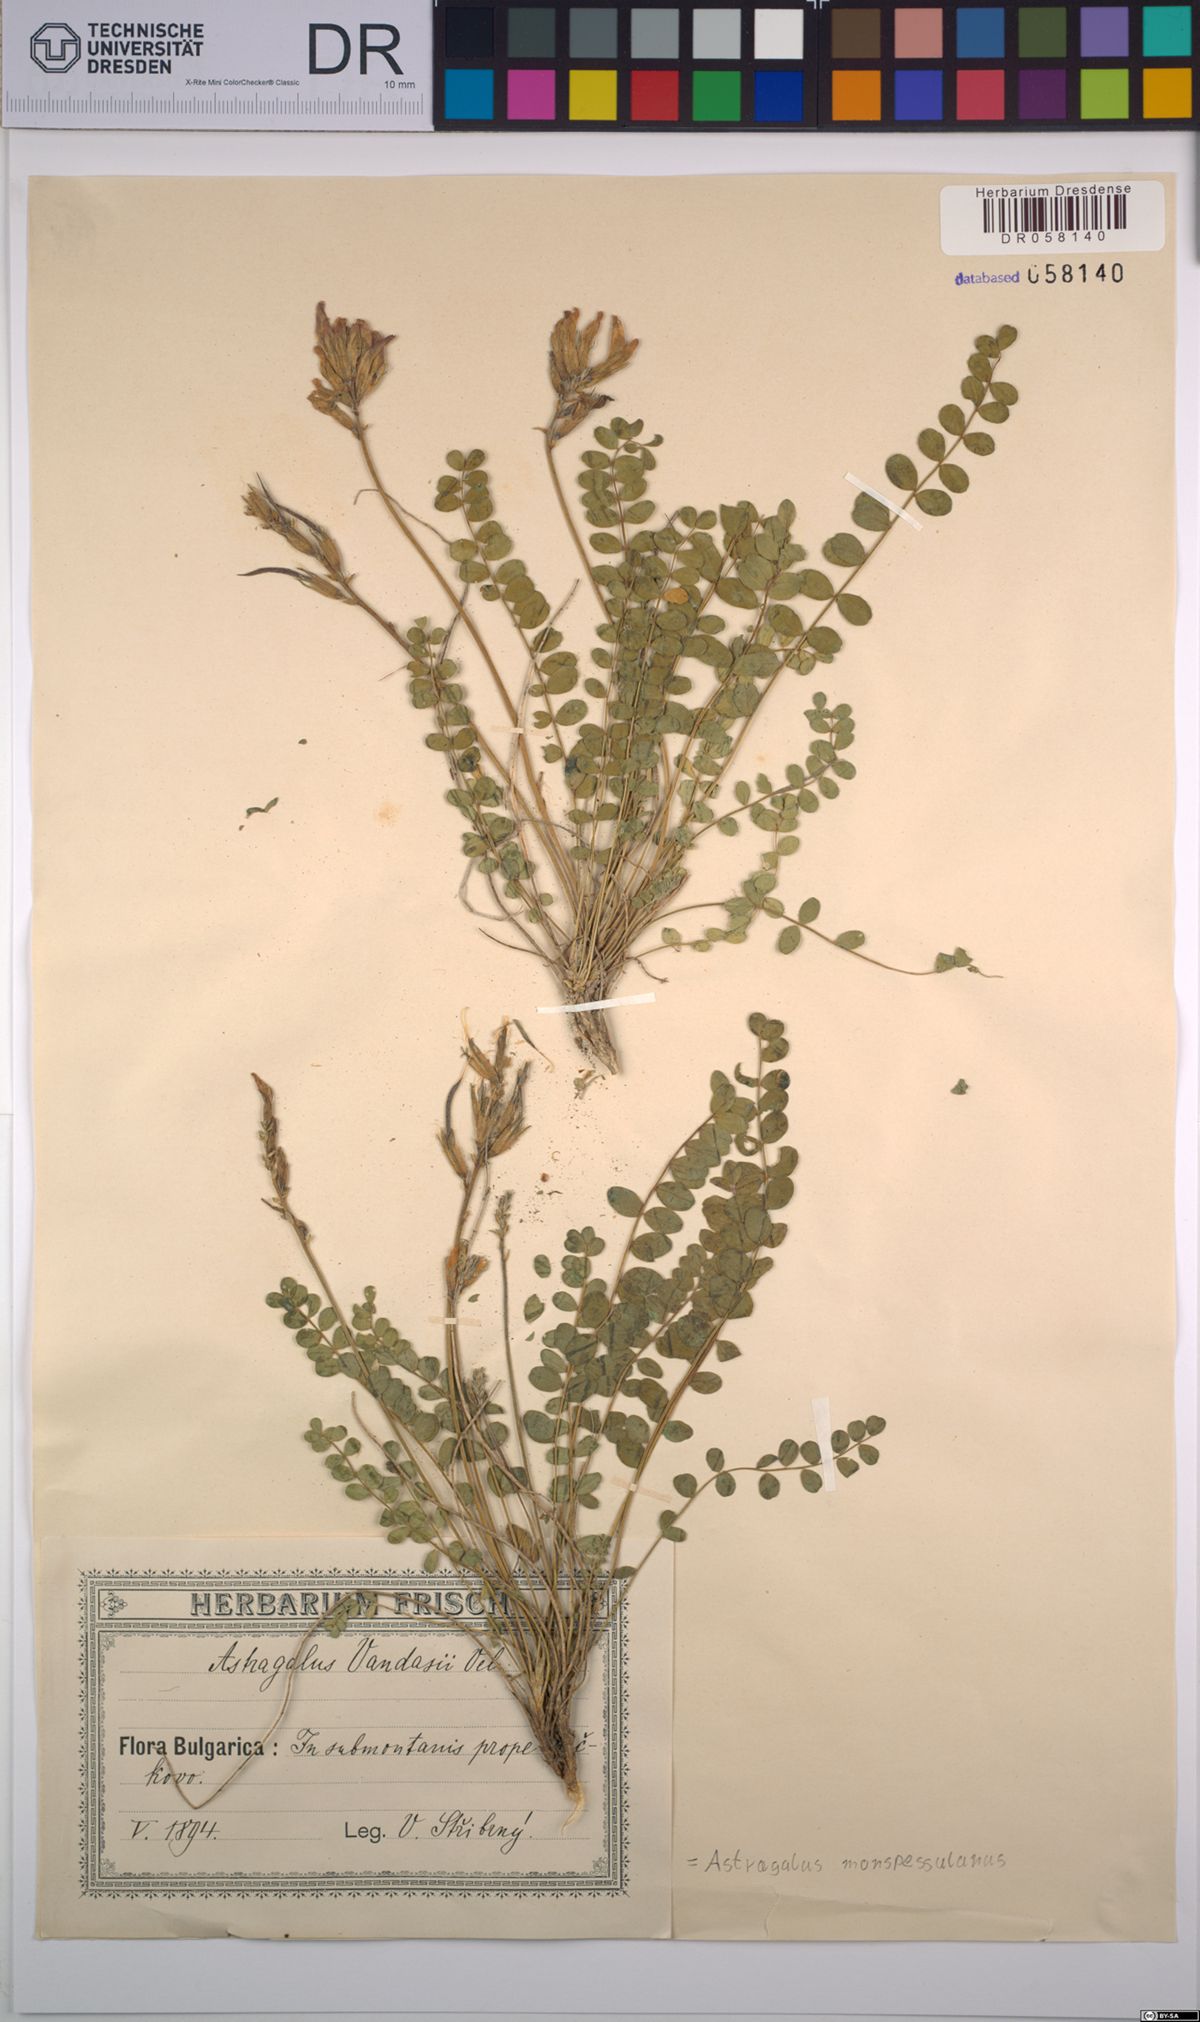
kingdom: Plantae
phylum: Tracheophyta
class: Magnoliopsida
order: Fabales
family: Fabaceae
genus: Astragalus
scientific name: Astragalus monspessulanus
